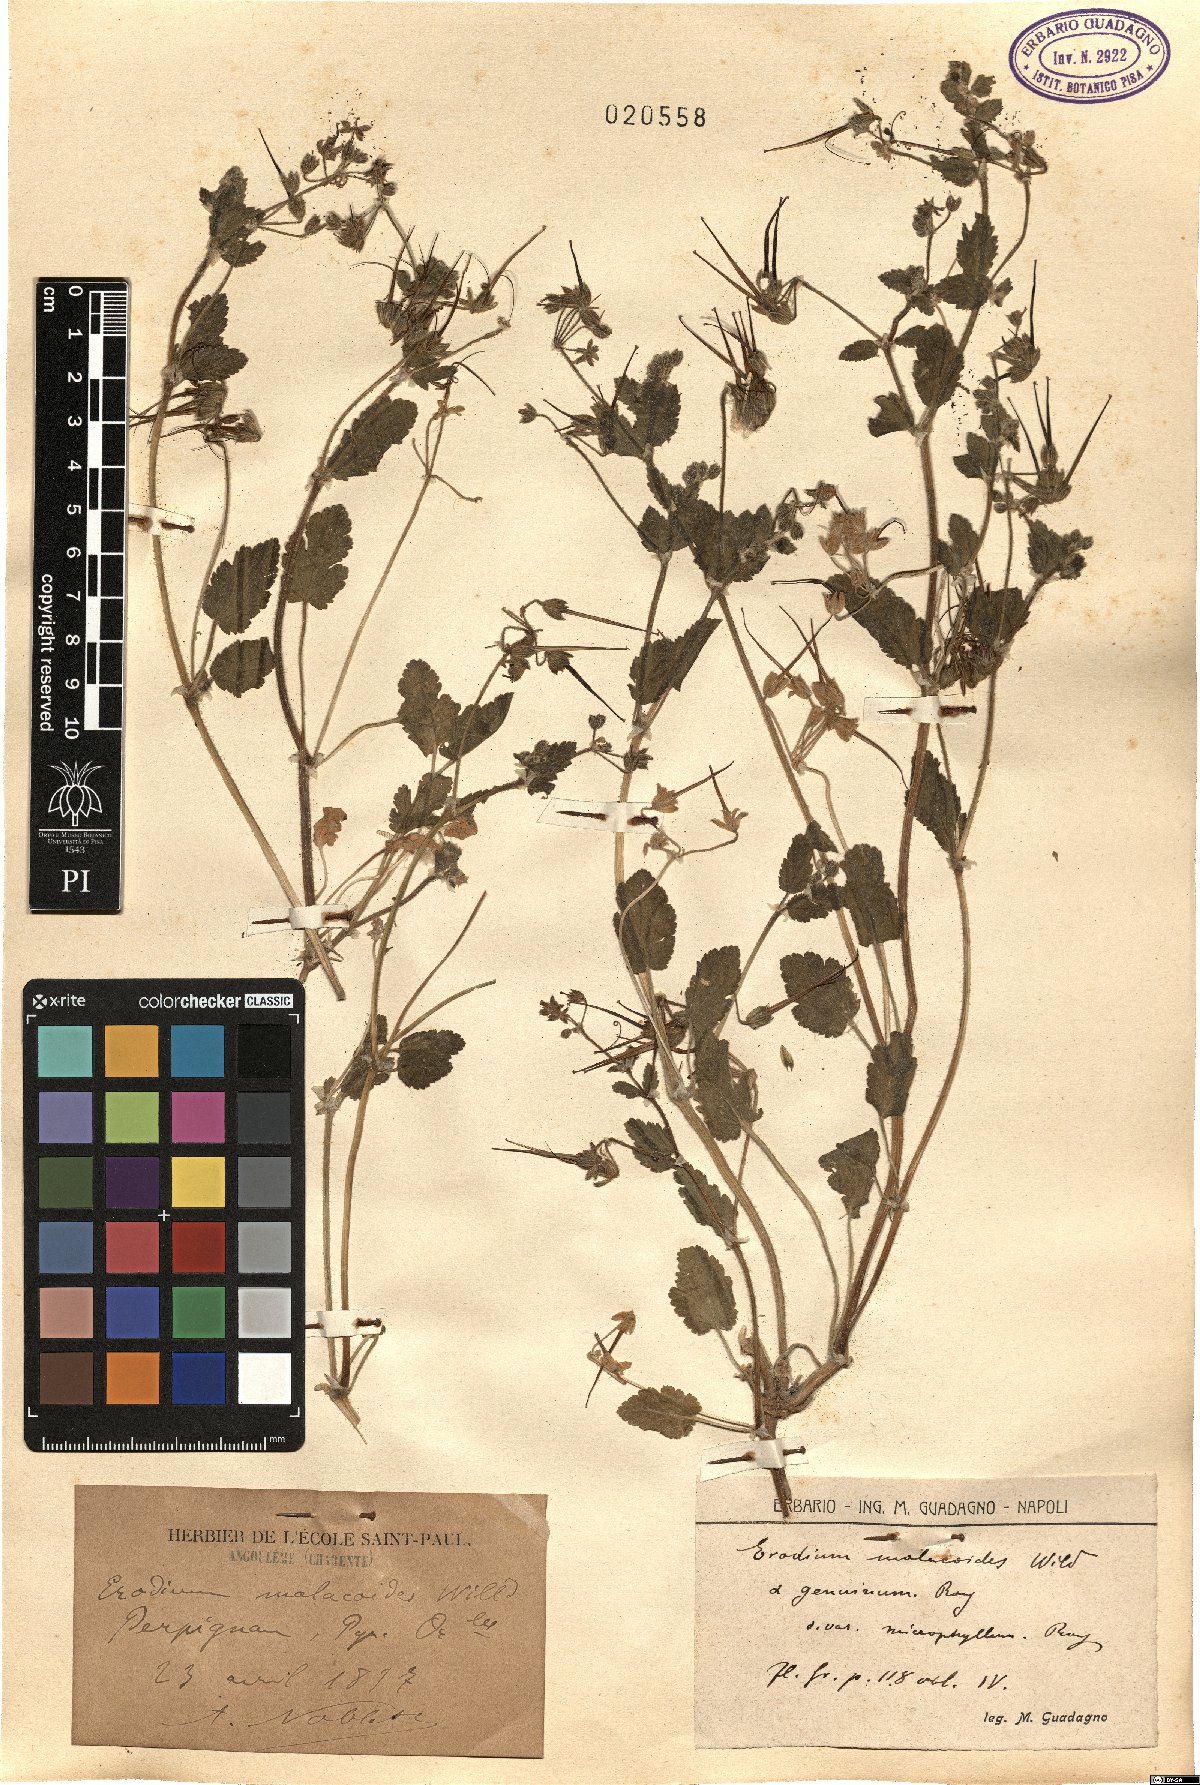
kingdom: Plantae
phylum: Tracheophyta
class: Magnoliopsida
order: Geraniales
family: Geraniaceae
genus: Erodium
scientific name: Erodium malacoides
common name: Soft stork's-bill
